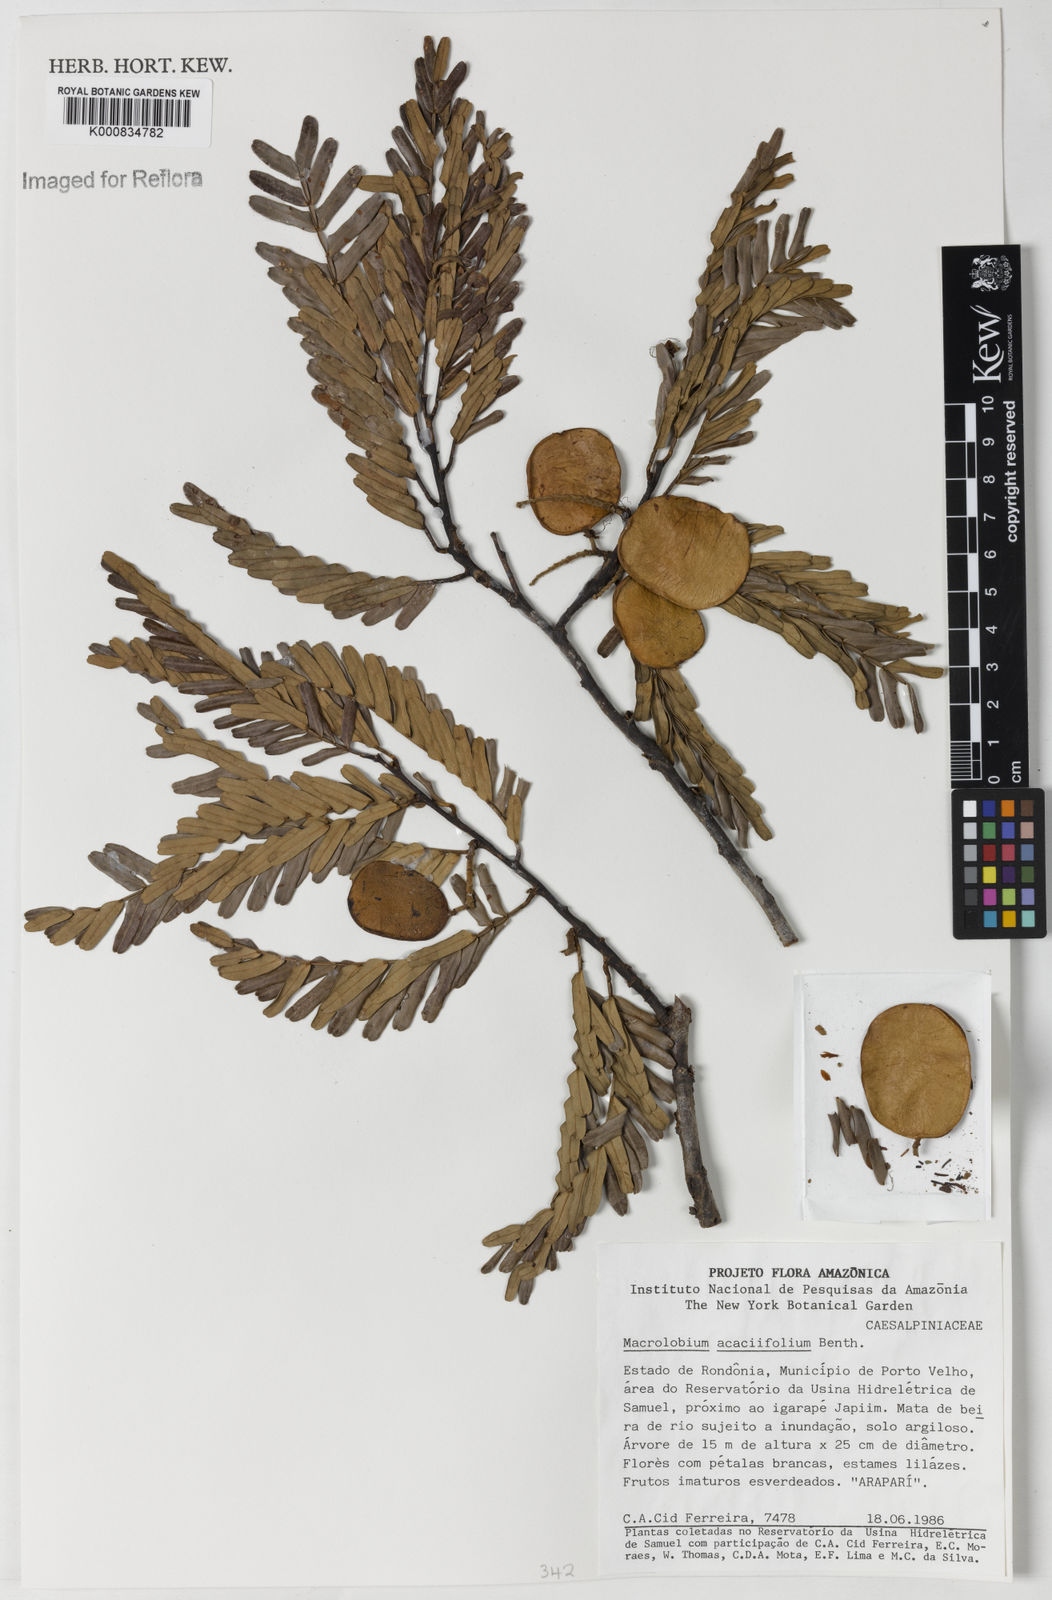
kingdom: Plantae
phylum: Tracheophyta
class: Magnoliopsida
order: Fabales
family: Fabaceae
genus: Macrolobium
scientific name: Macrolobium acaciifolium
